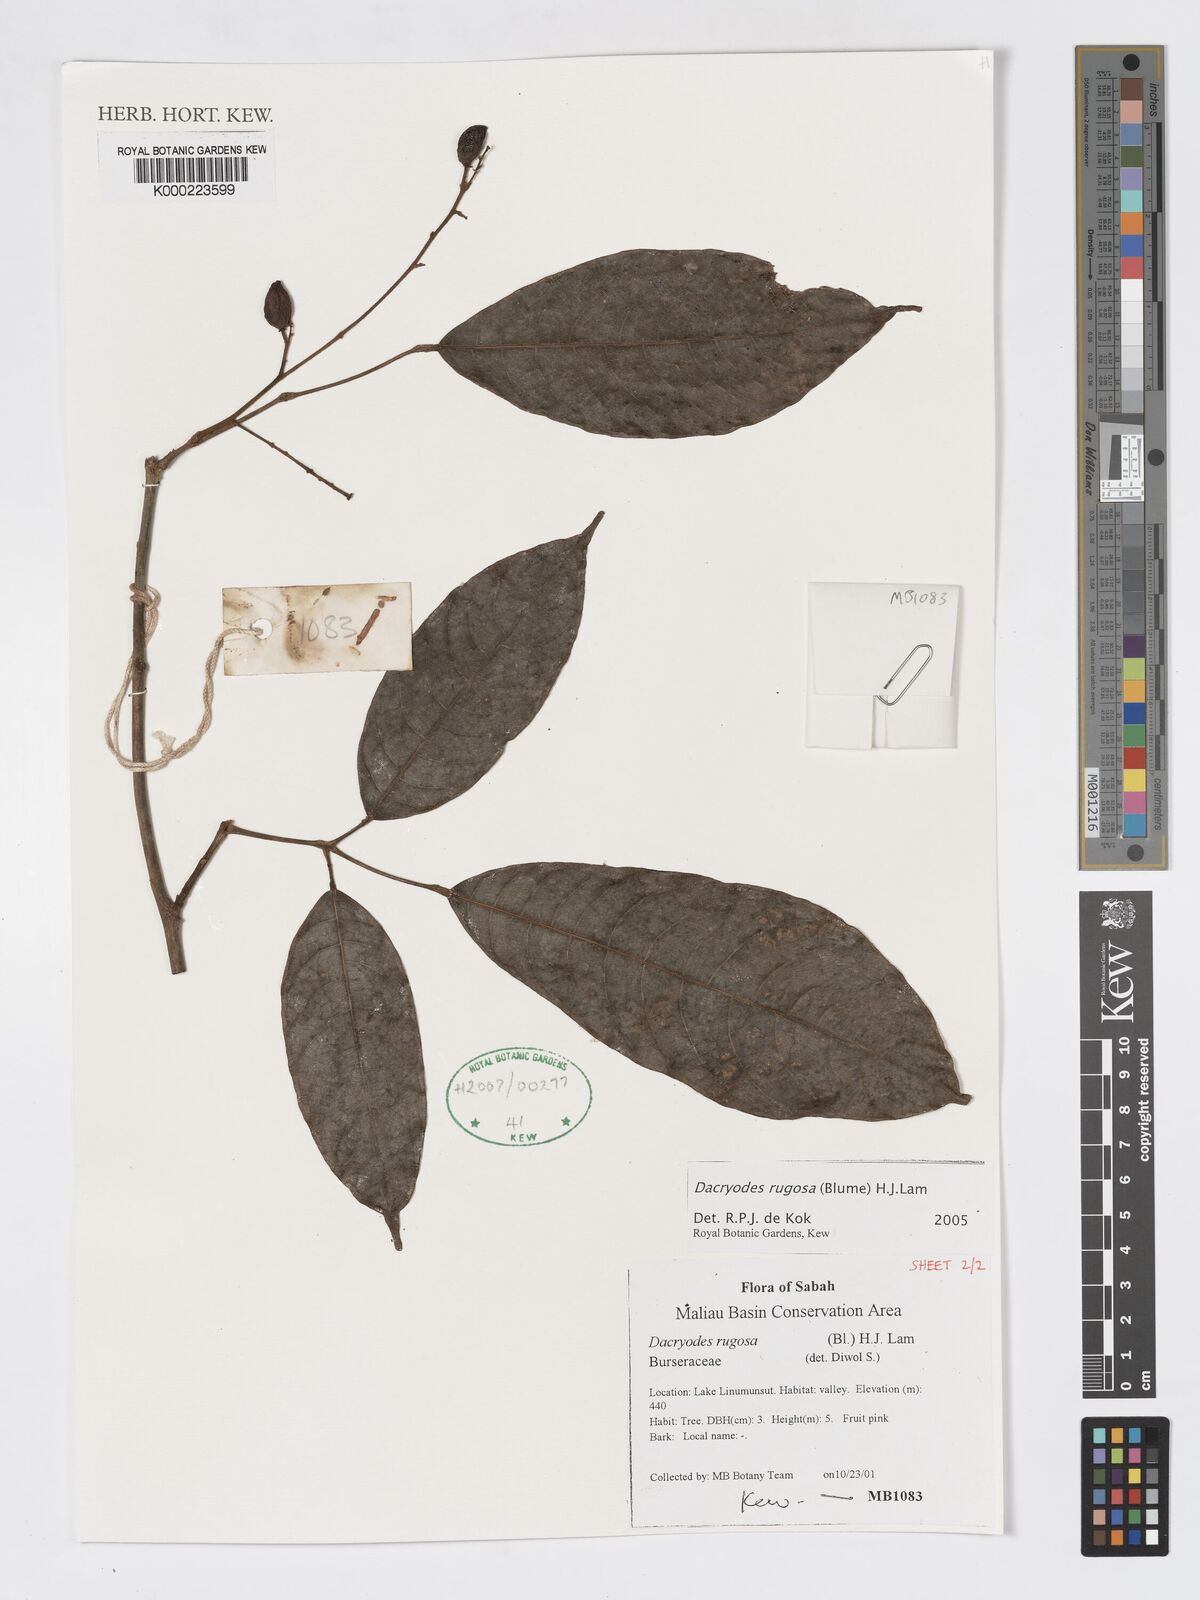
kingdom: Plantae
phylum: Tracheophyta
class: Magnoliopsida
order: Sapindales
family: Burseraceae
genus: Dacryodes
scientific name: Dacryodes rugosa
